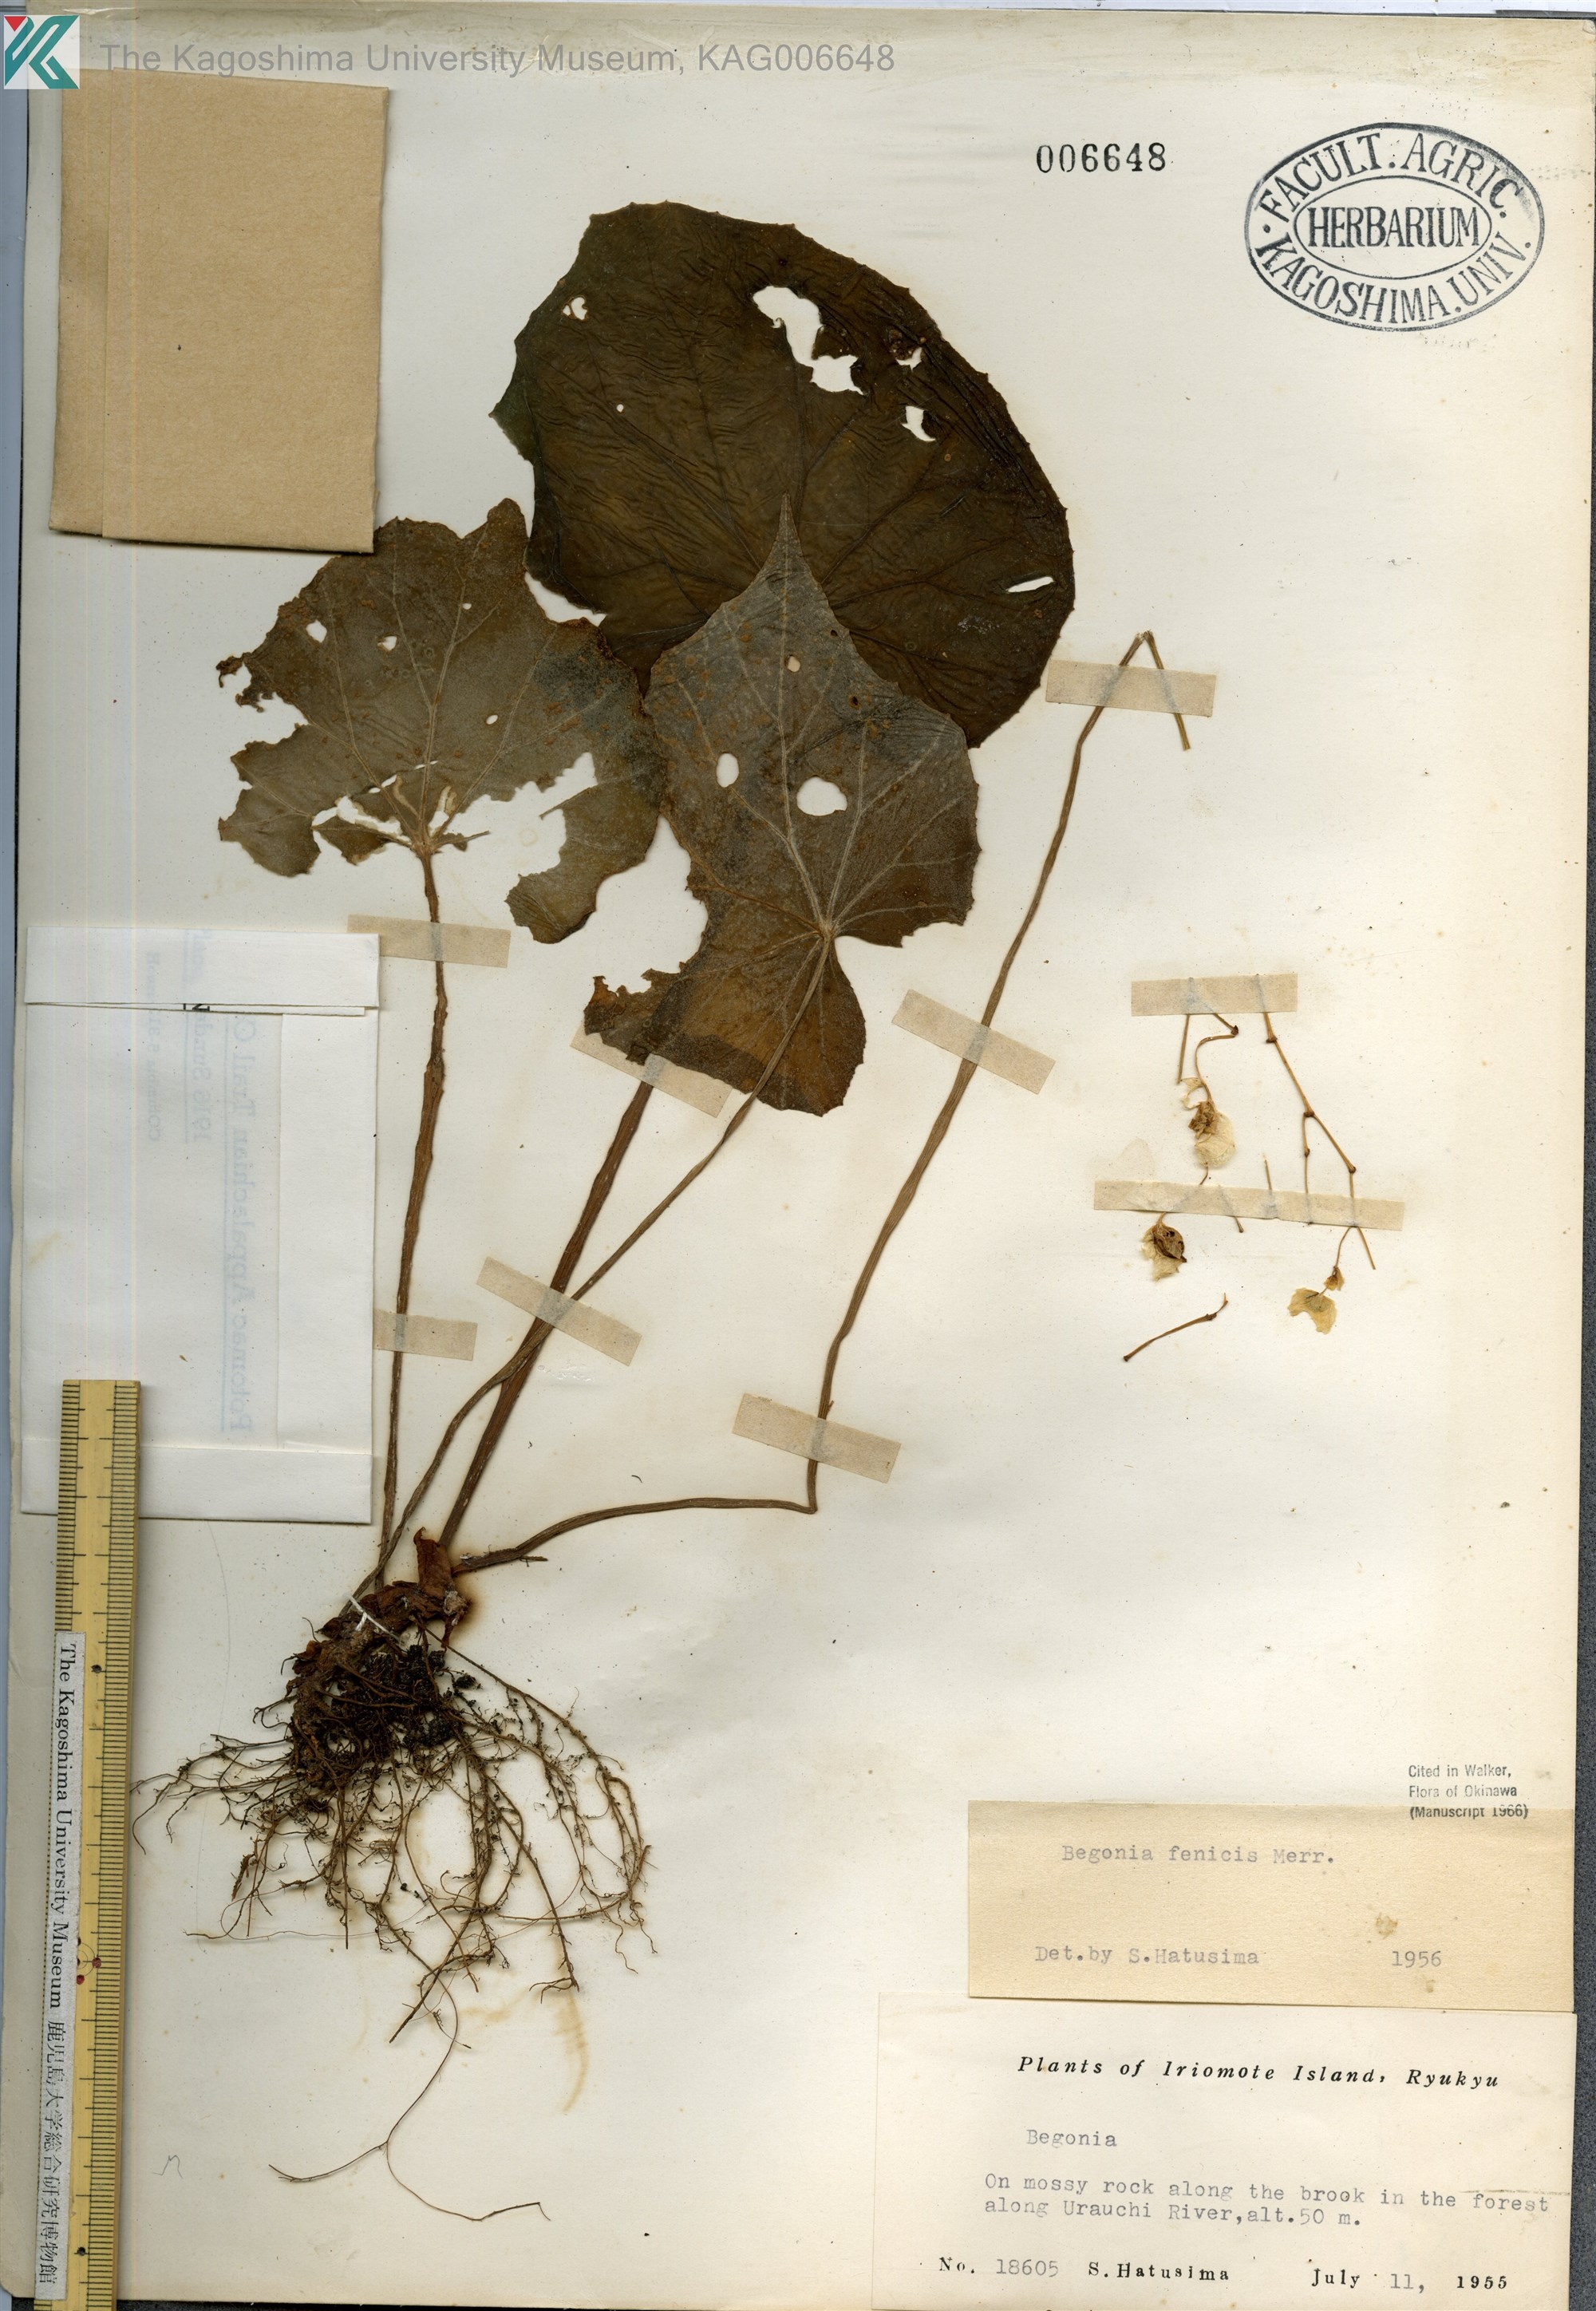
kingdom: Plantae
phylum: Tracheophyta
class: Magnoliopsida
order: Cucurbitales
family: Begoniaceae
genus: Begonia
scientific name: Begonia fenicis
